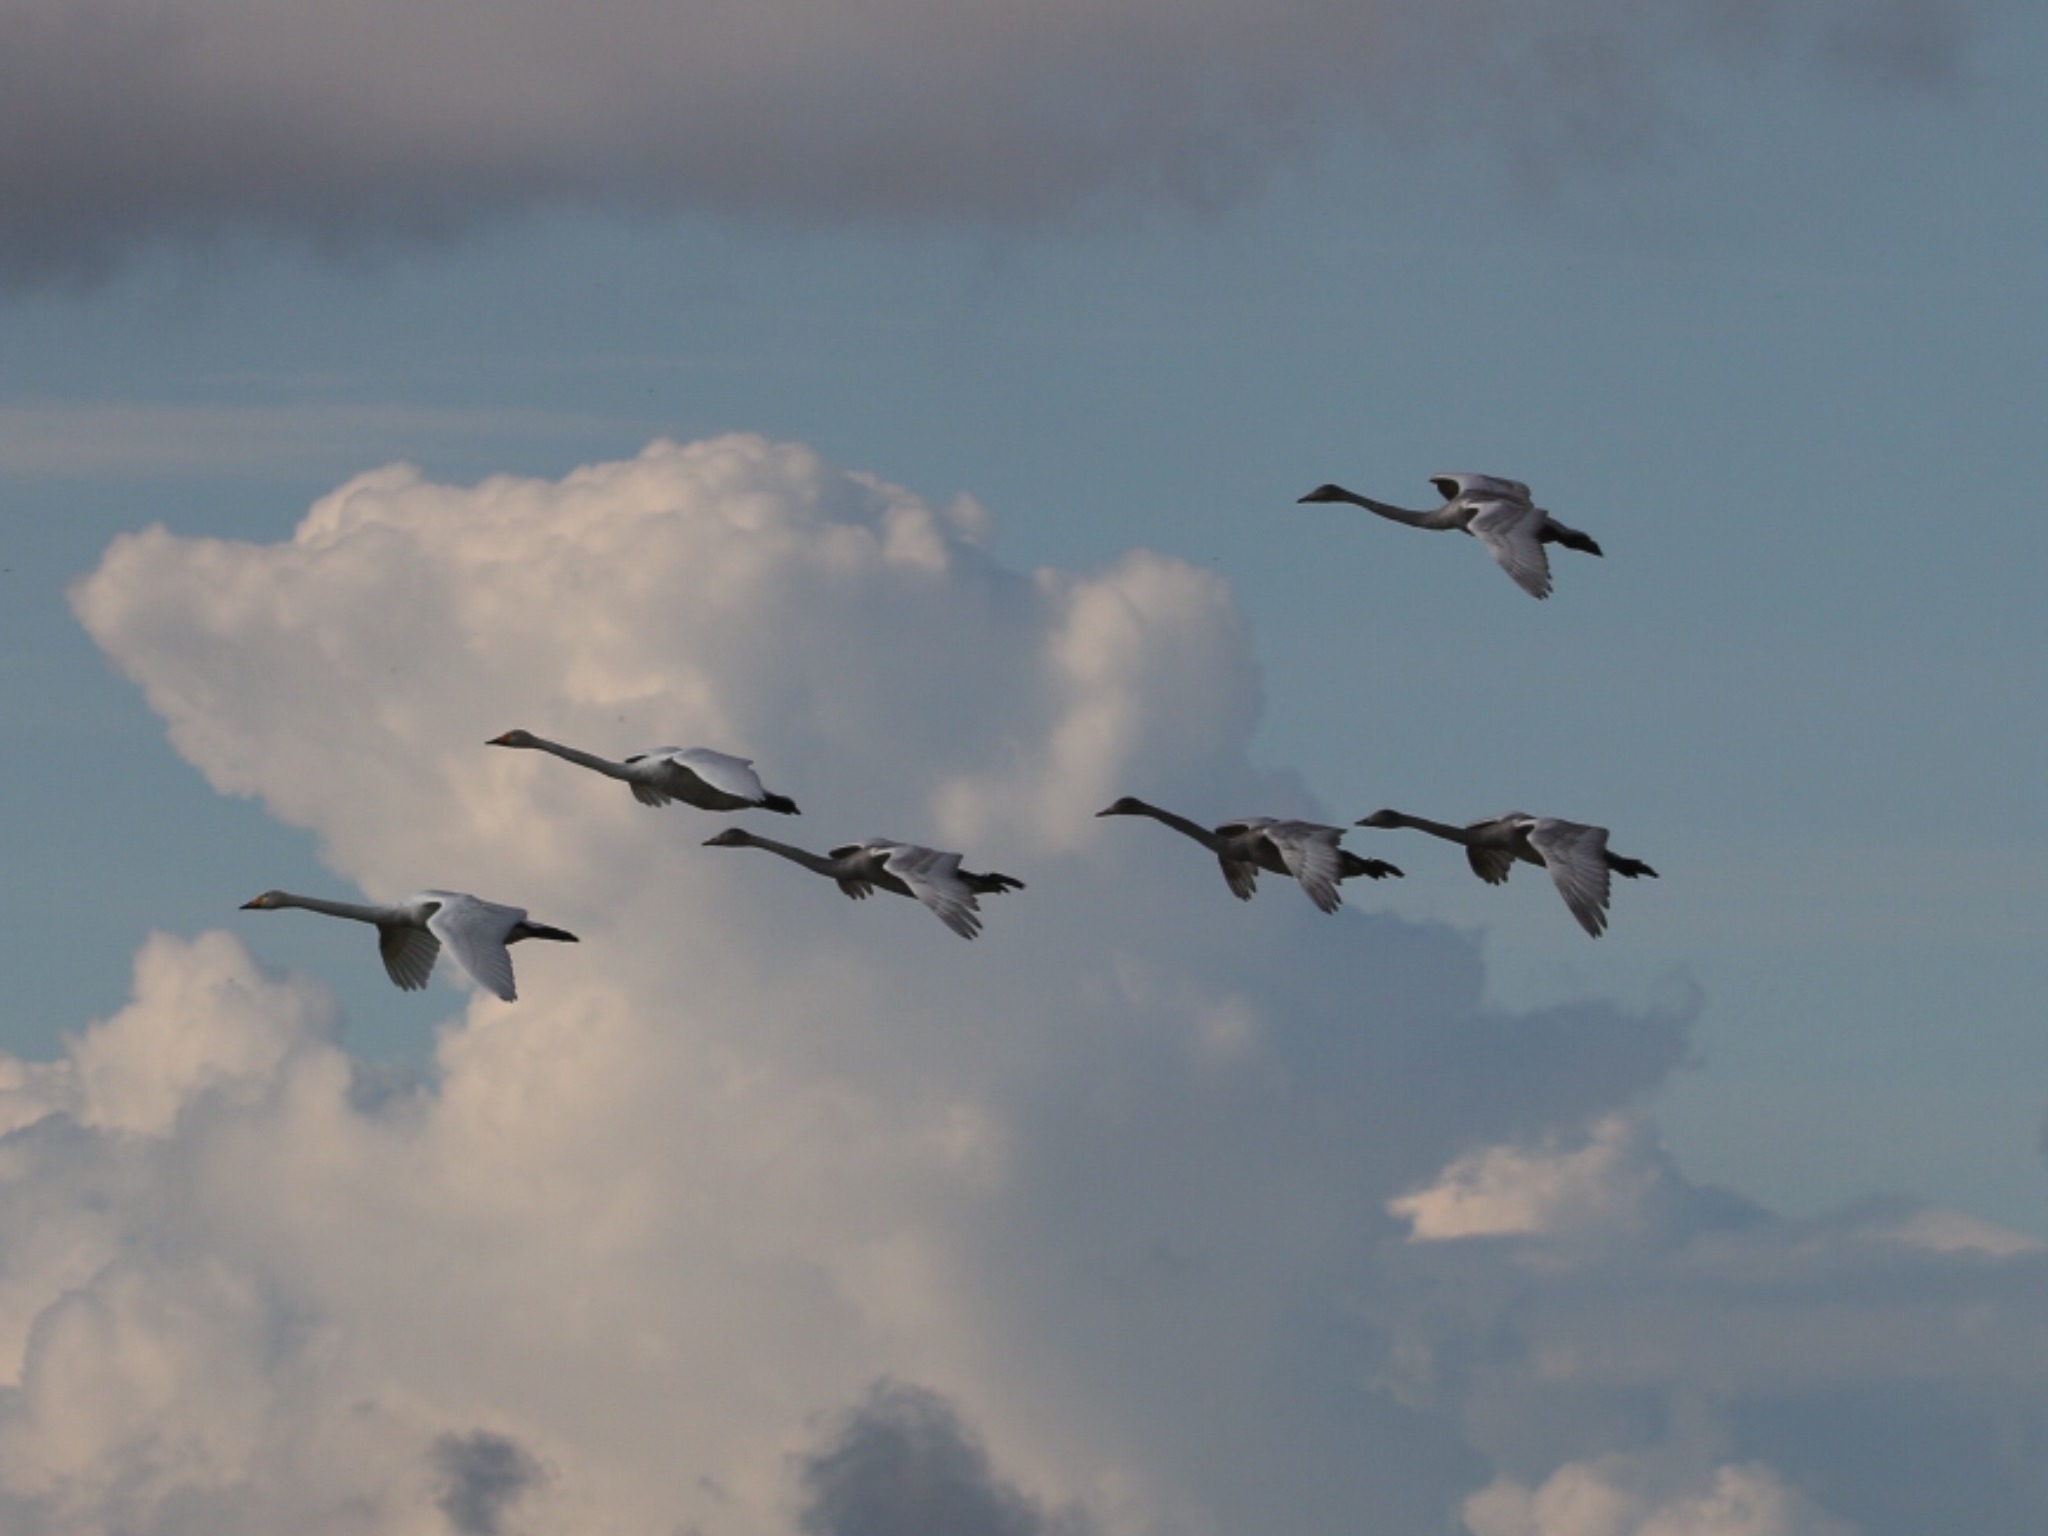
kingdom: Animalia
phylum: Chordata
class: Aves
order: Anseriformes
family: Anatidae
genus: Cygnus
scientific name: Cygnus cygnus
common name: Sangsvane
